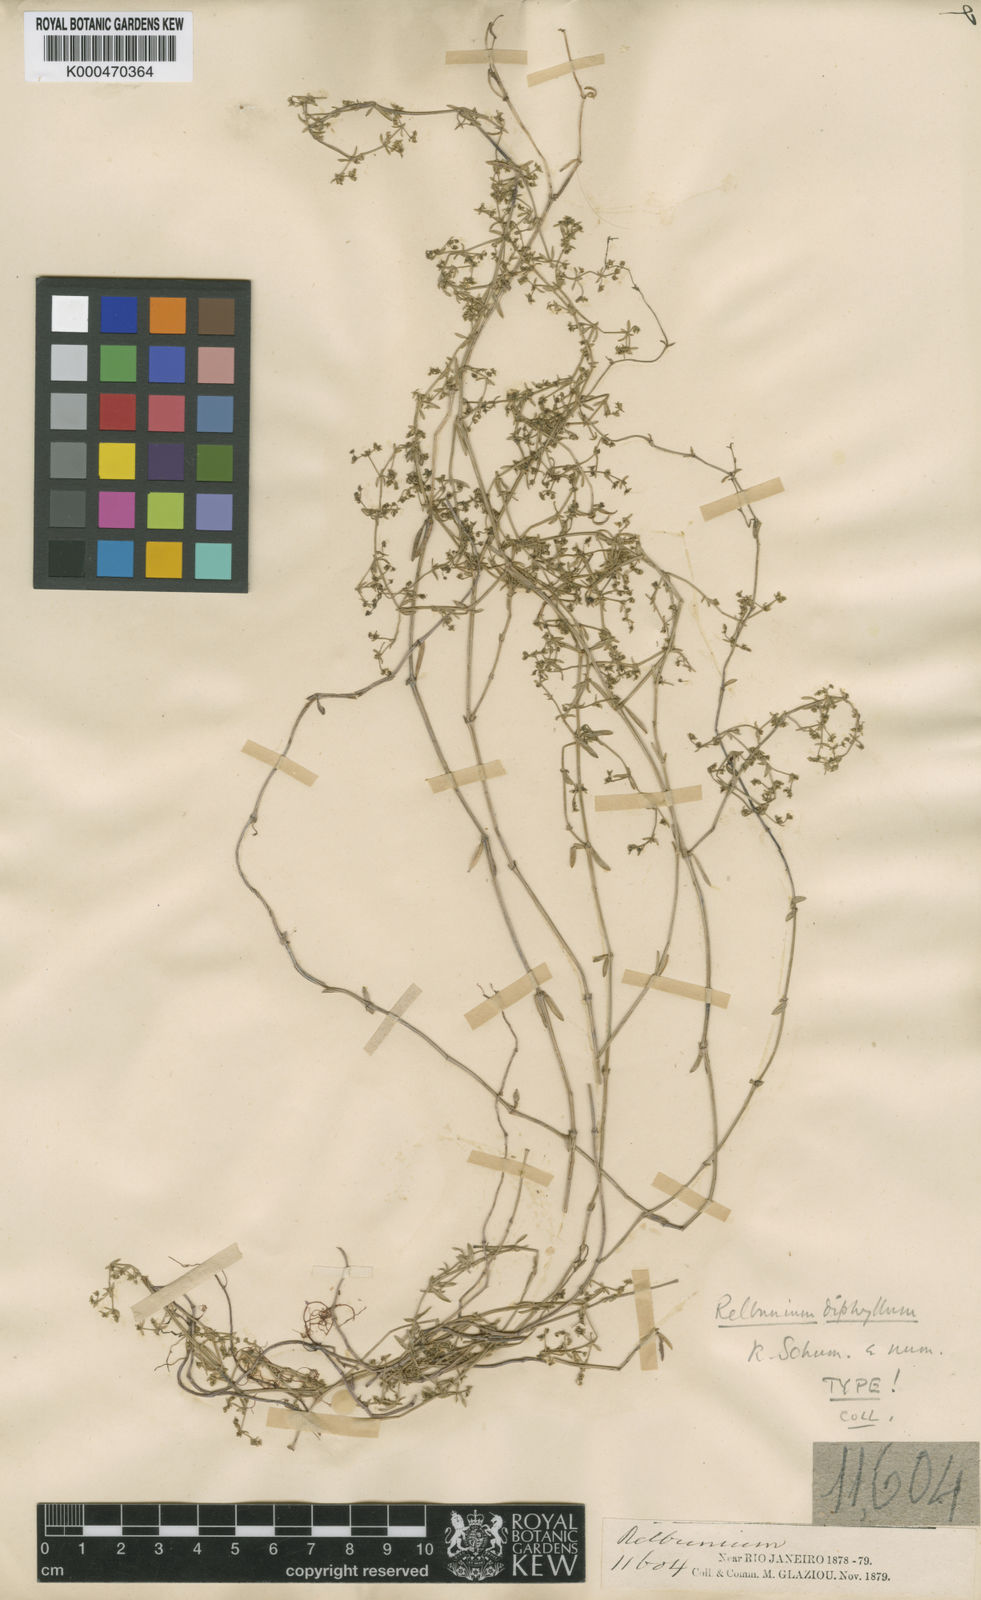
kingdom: Plantae
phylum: Tracheophyta
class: Magnoliopsida
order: Gentianales
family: Rubiaceae
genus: Galium
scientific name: Galium diphyllum
